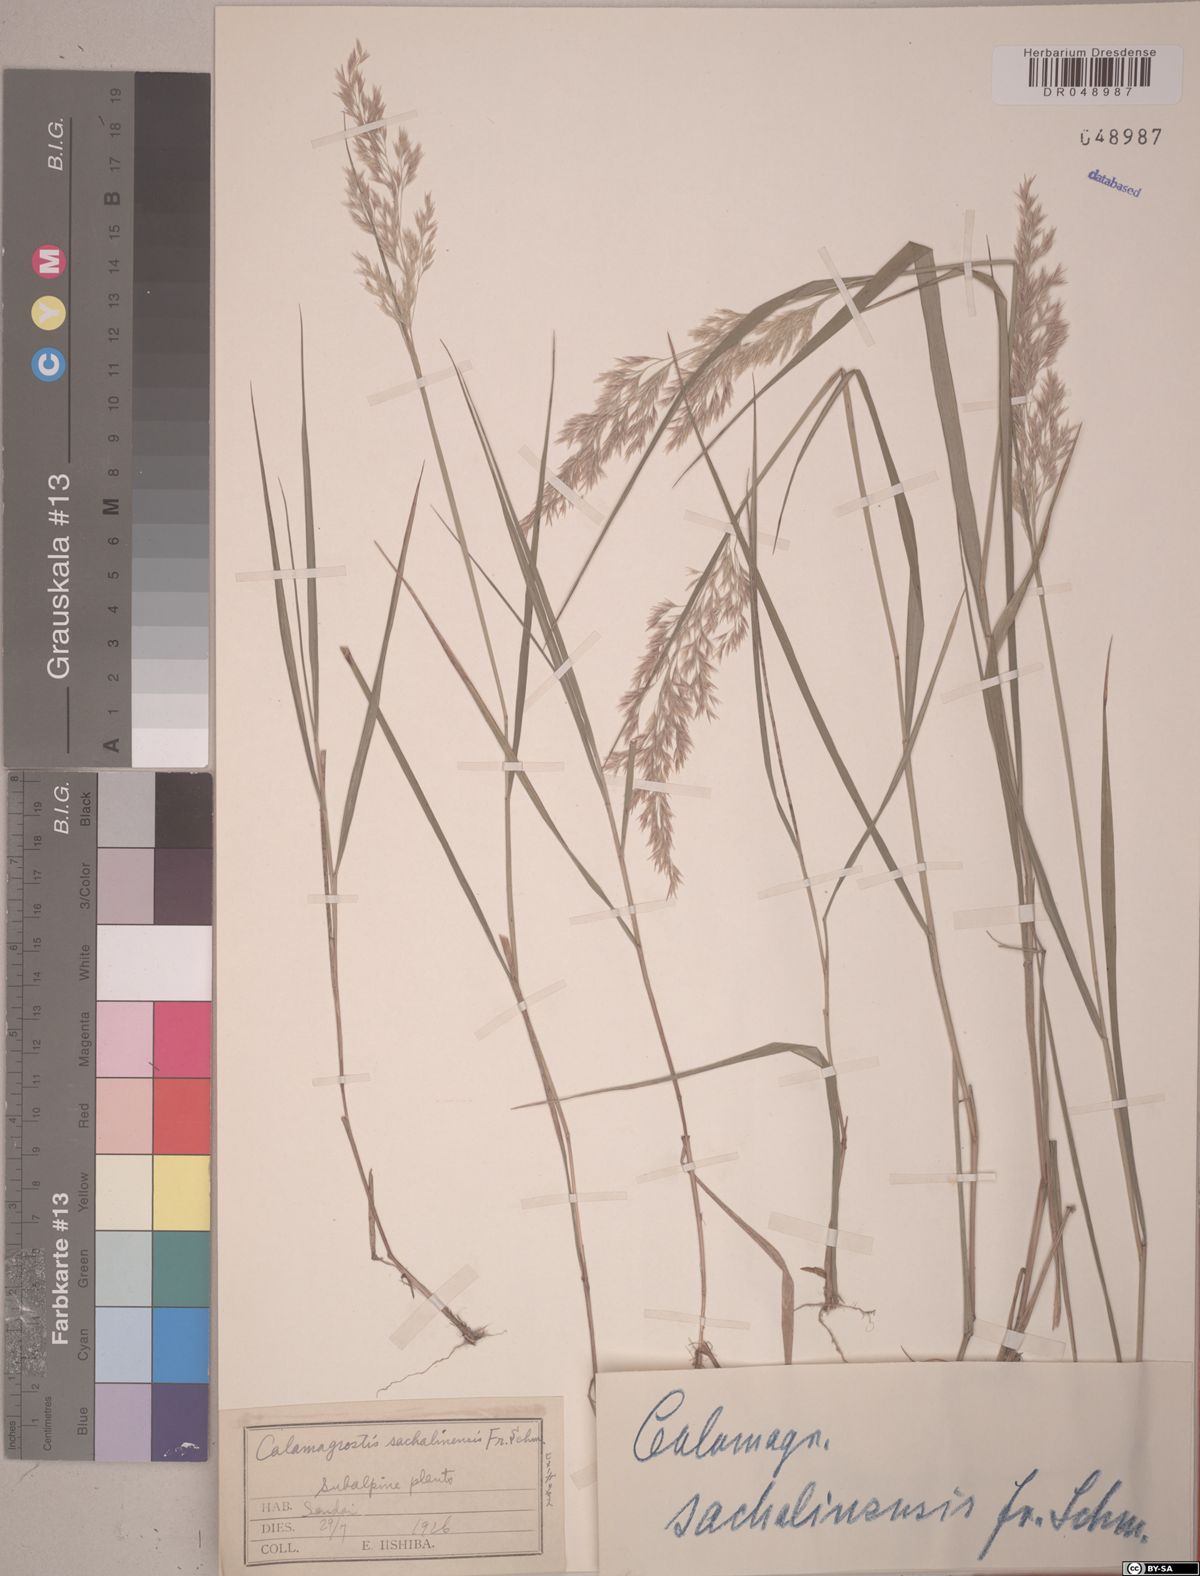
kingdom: Plantae
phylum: Tracheophyta
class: Liliopsida
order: Poales
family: Poaceae
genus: Calamagrostis
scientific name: Calamagrostis sachalinensis
